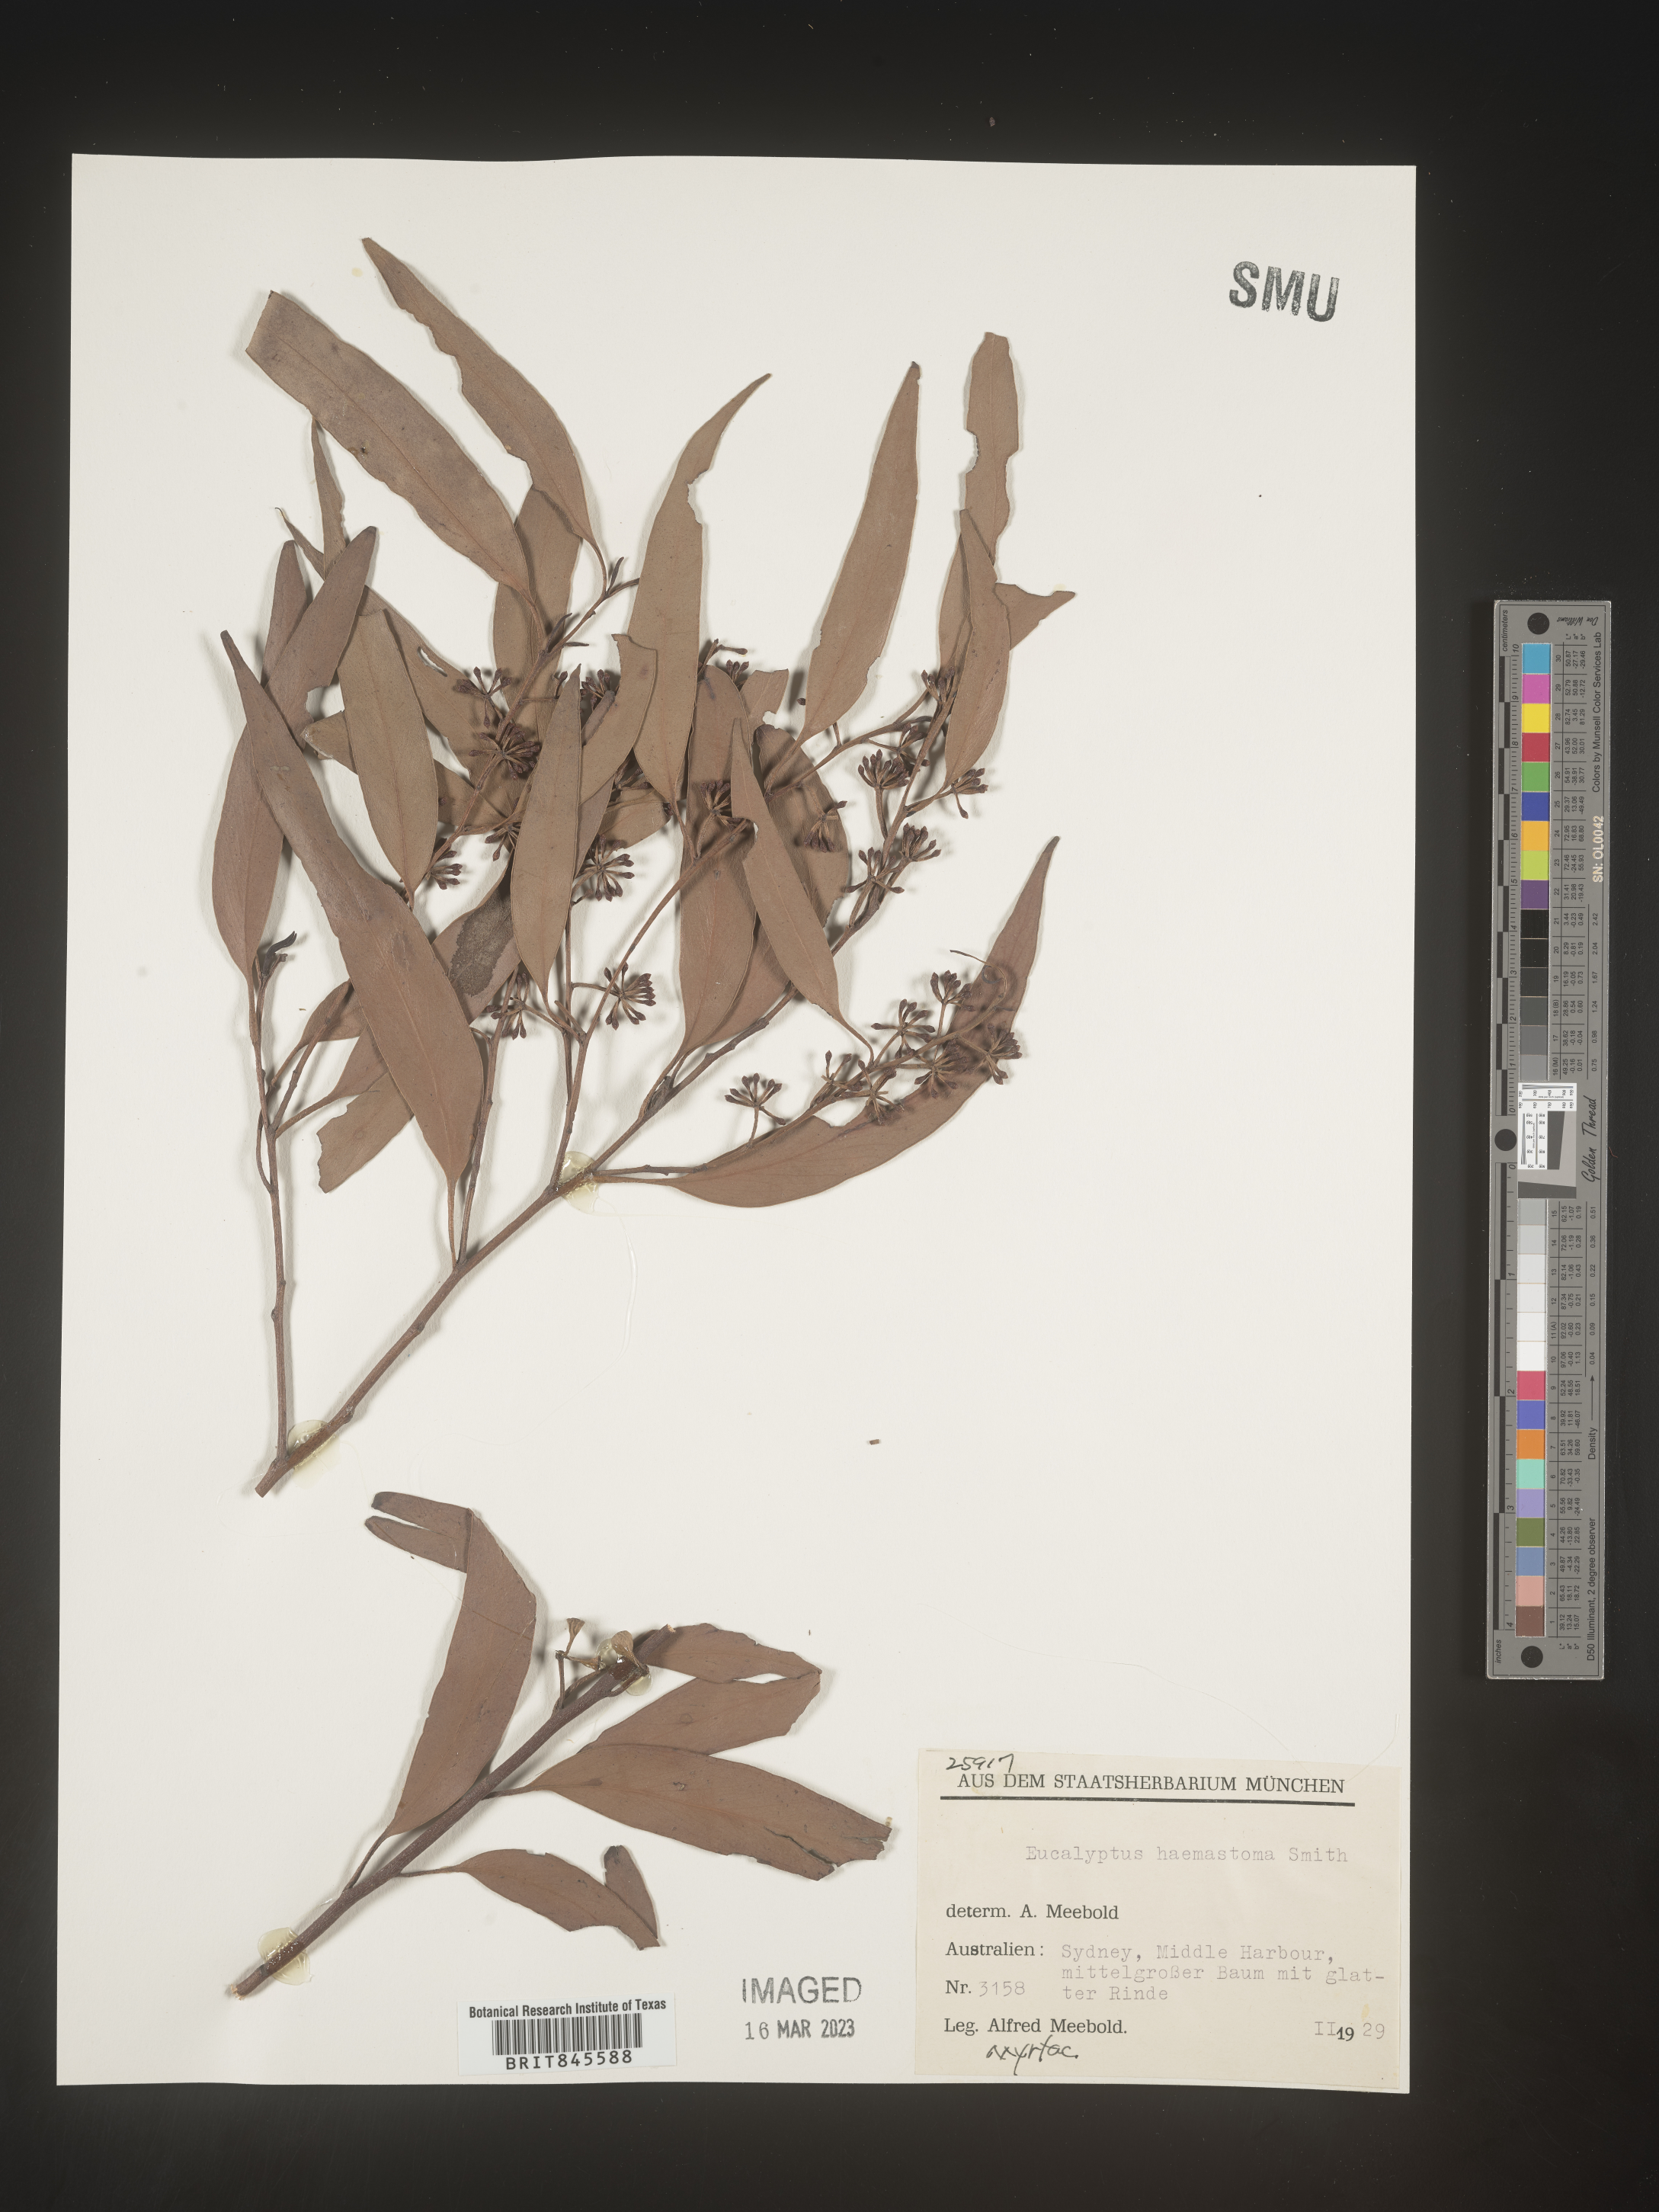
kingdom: Plantae
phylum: Tracheophyta
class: Magnoliopsida
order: Myrtales
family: Myrtaceae
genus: Eucalyptus
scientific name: Eucalyptus
